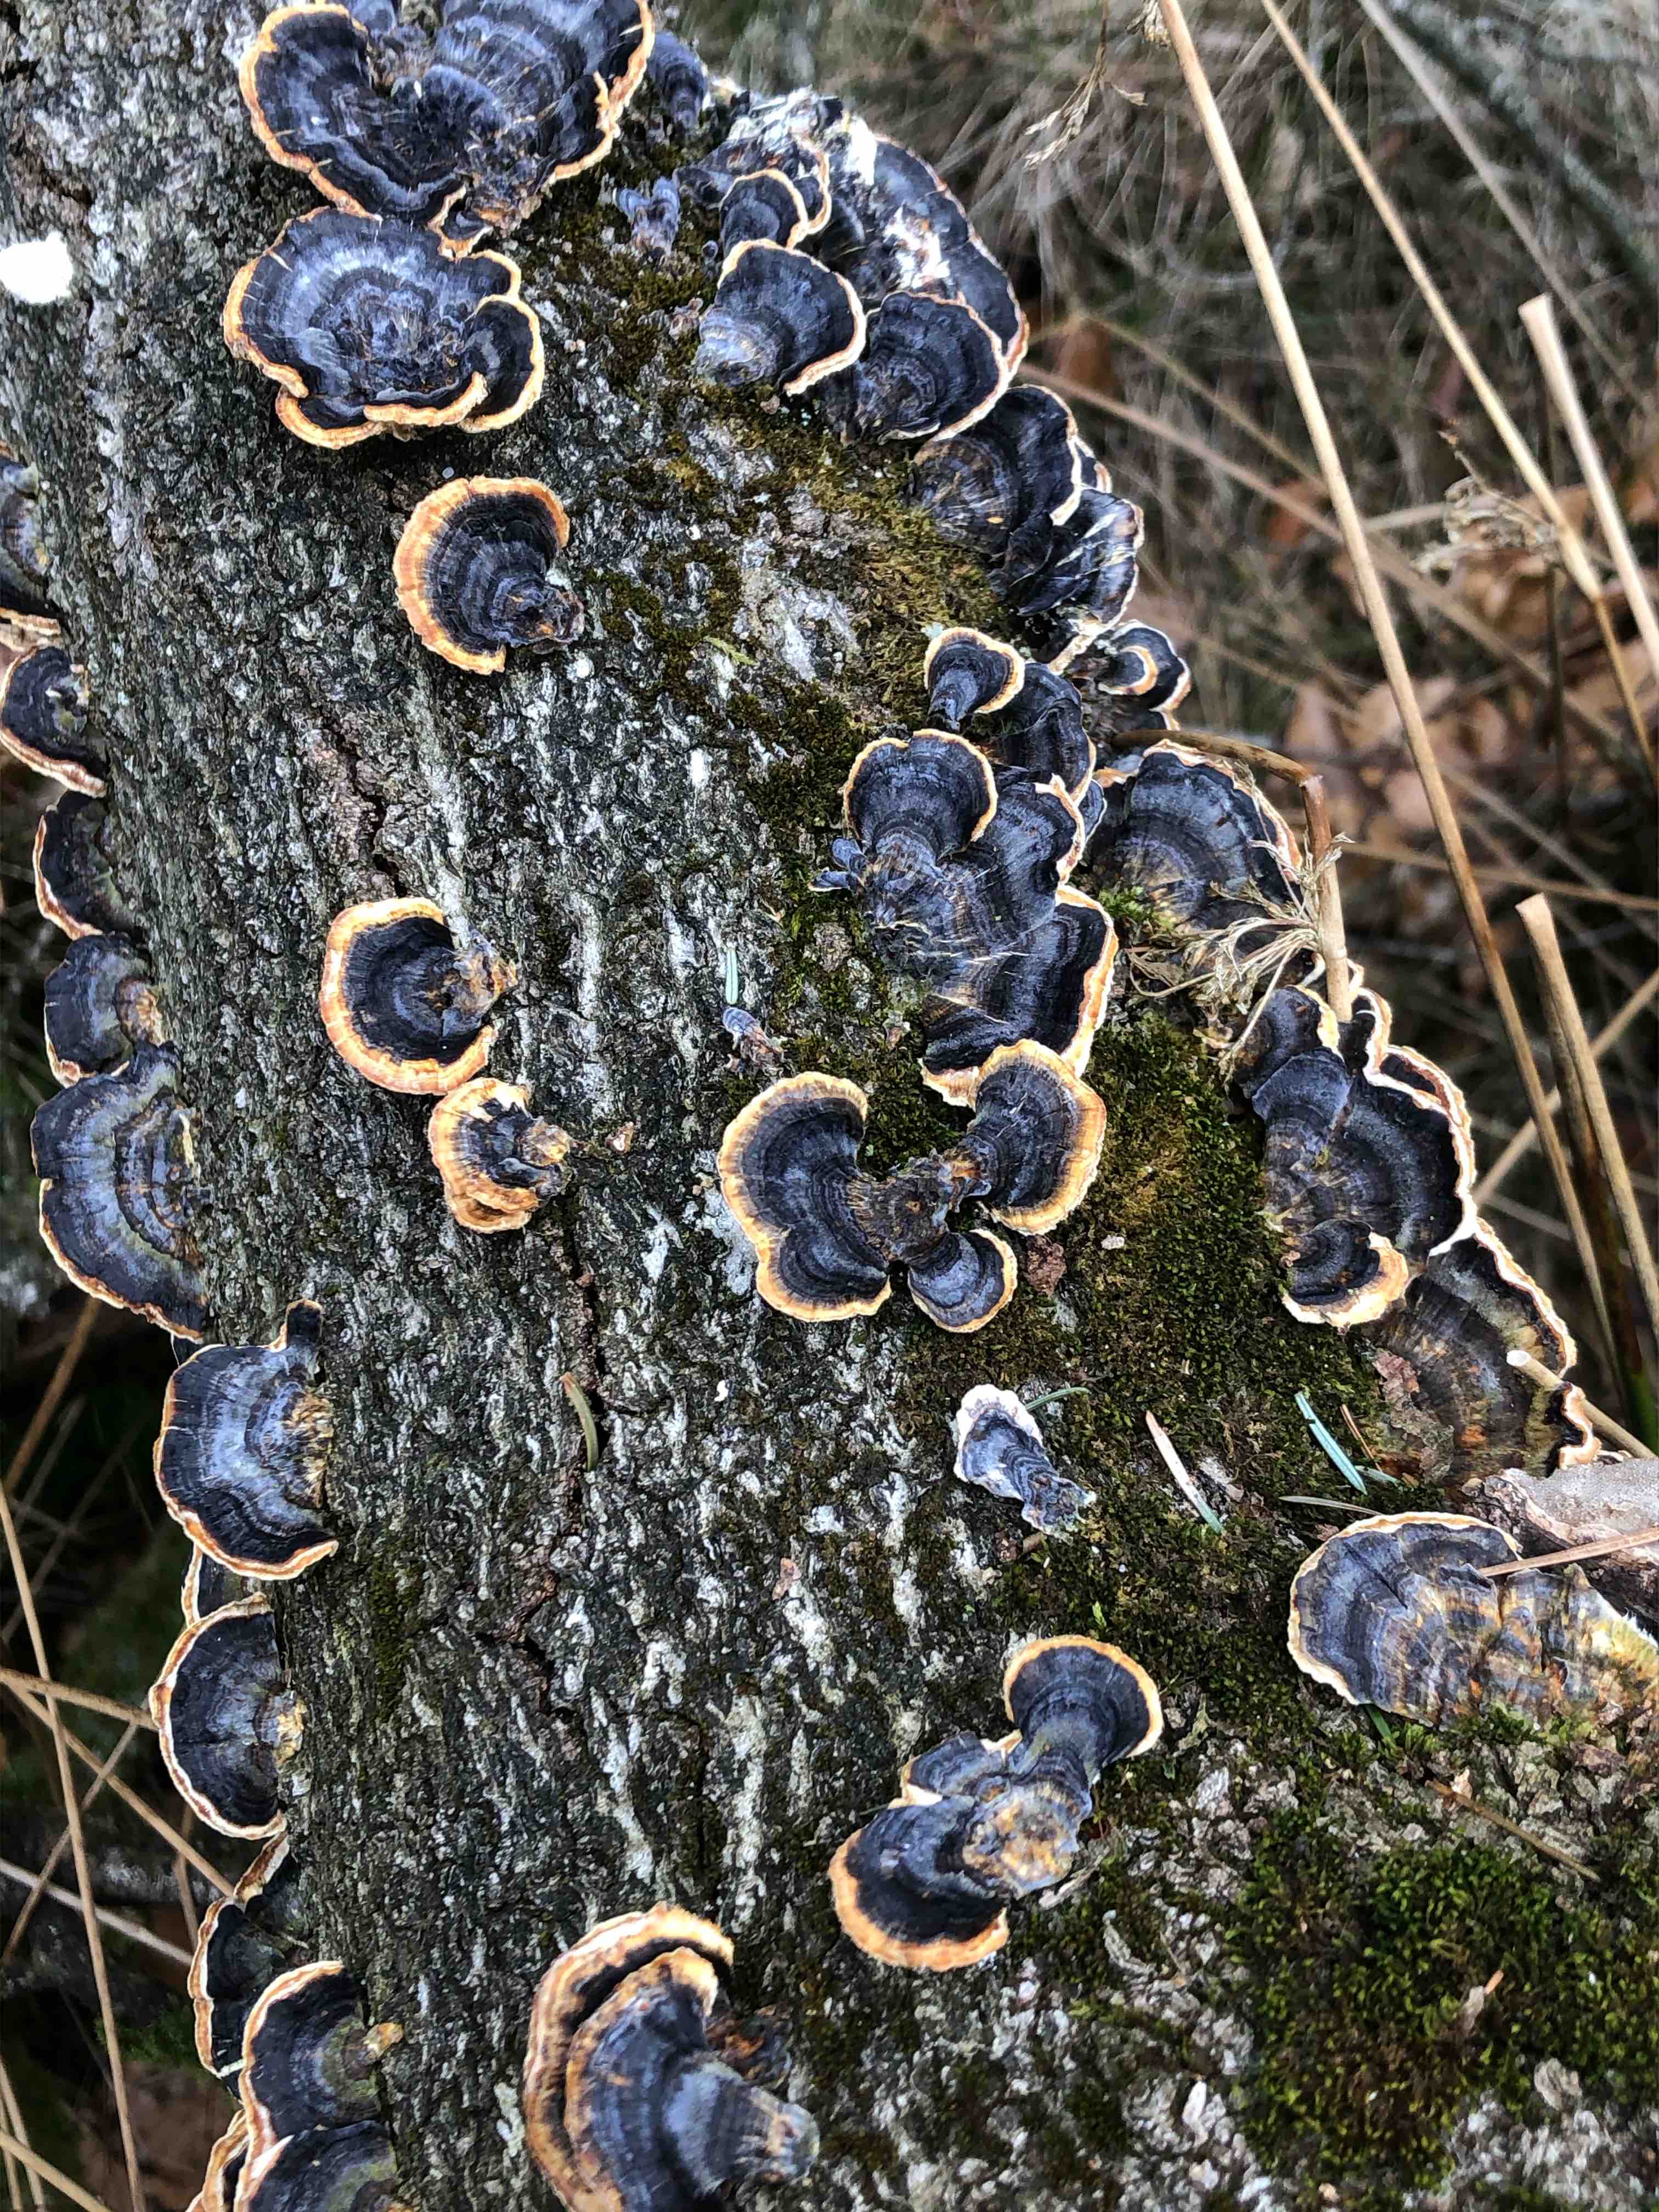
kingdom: Fungi
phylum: Basidiomycota
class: Agaricomycetes
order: Polyporales
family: Polyporaceae
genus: Trametes
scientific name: Trametes versicolor
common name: broget læderporesvamp
